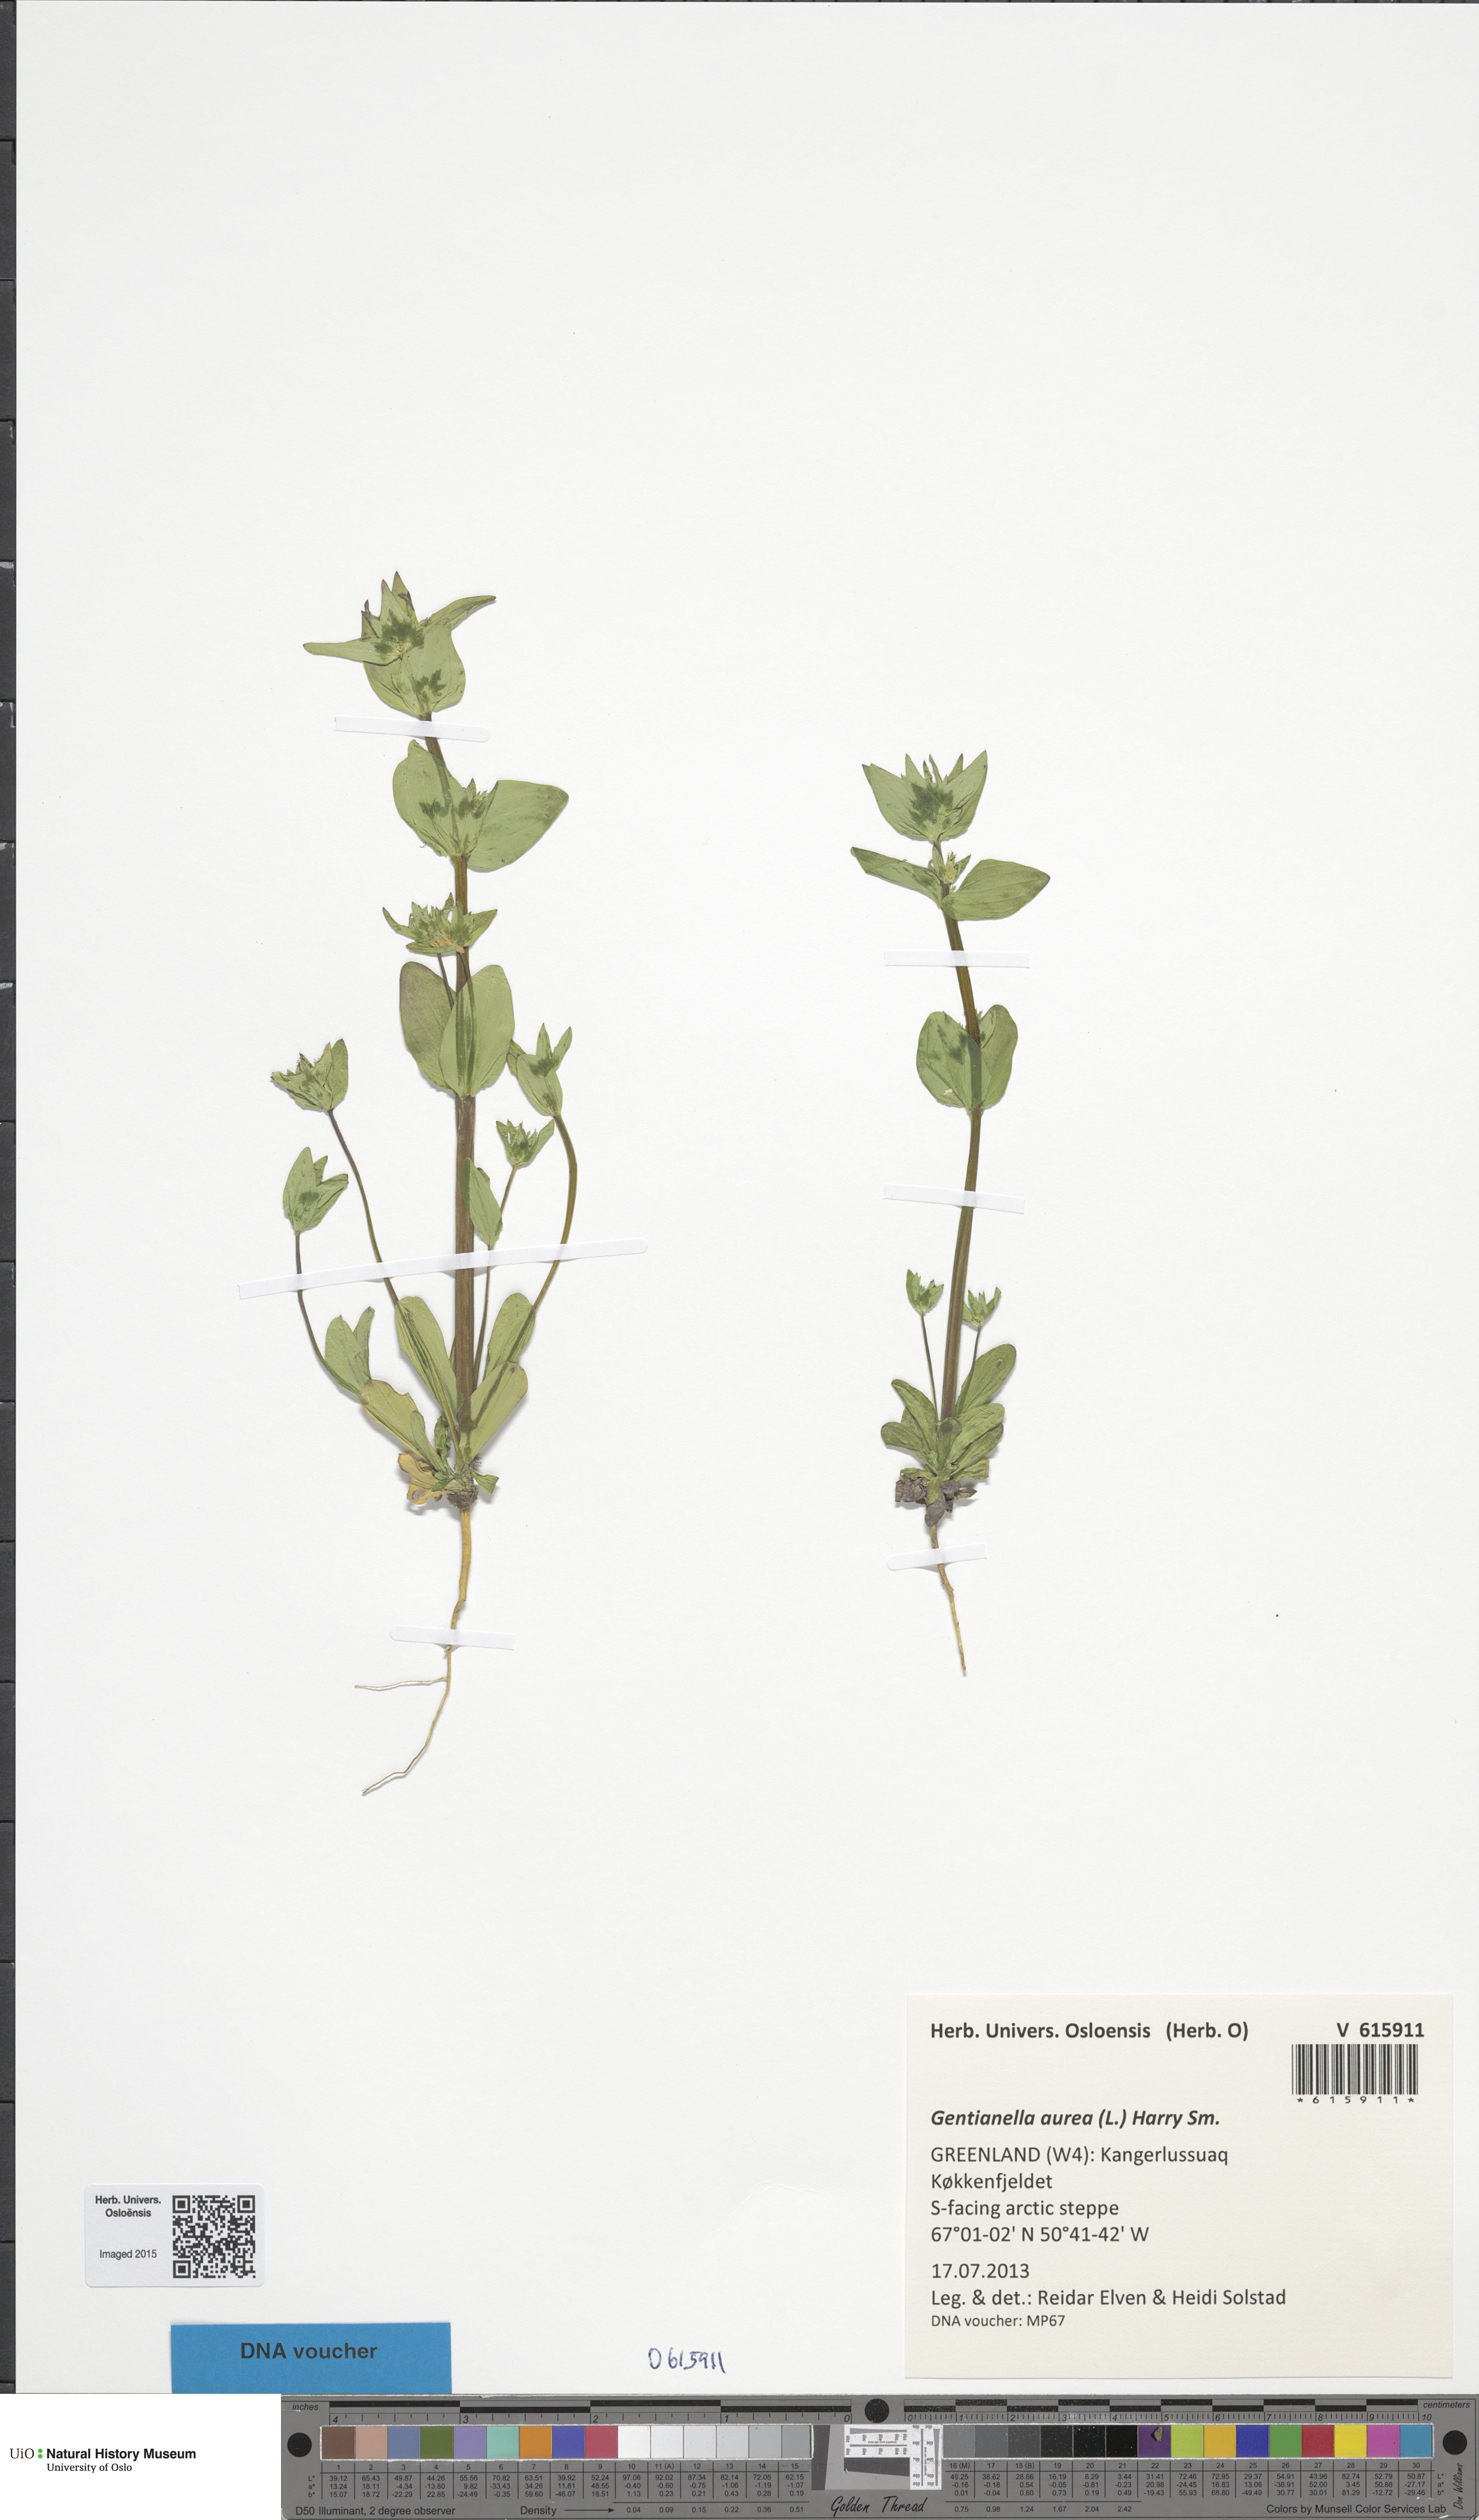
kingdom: Plantae
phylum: Tracheophyta
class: Magnoliopsida
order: Gentianales
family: Gentianaceae
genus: Gentianella
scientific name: Gentianella aurea
